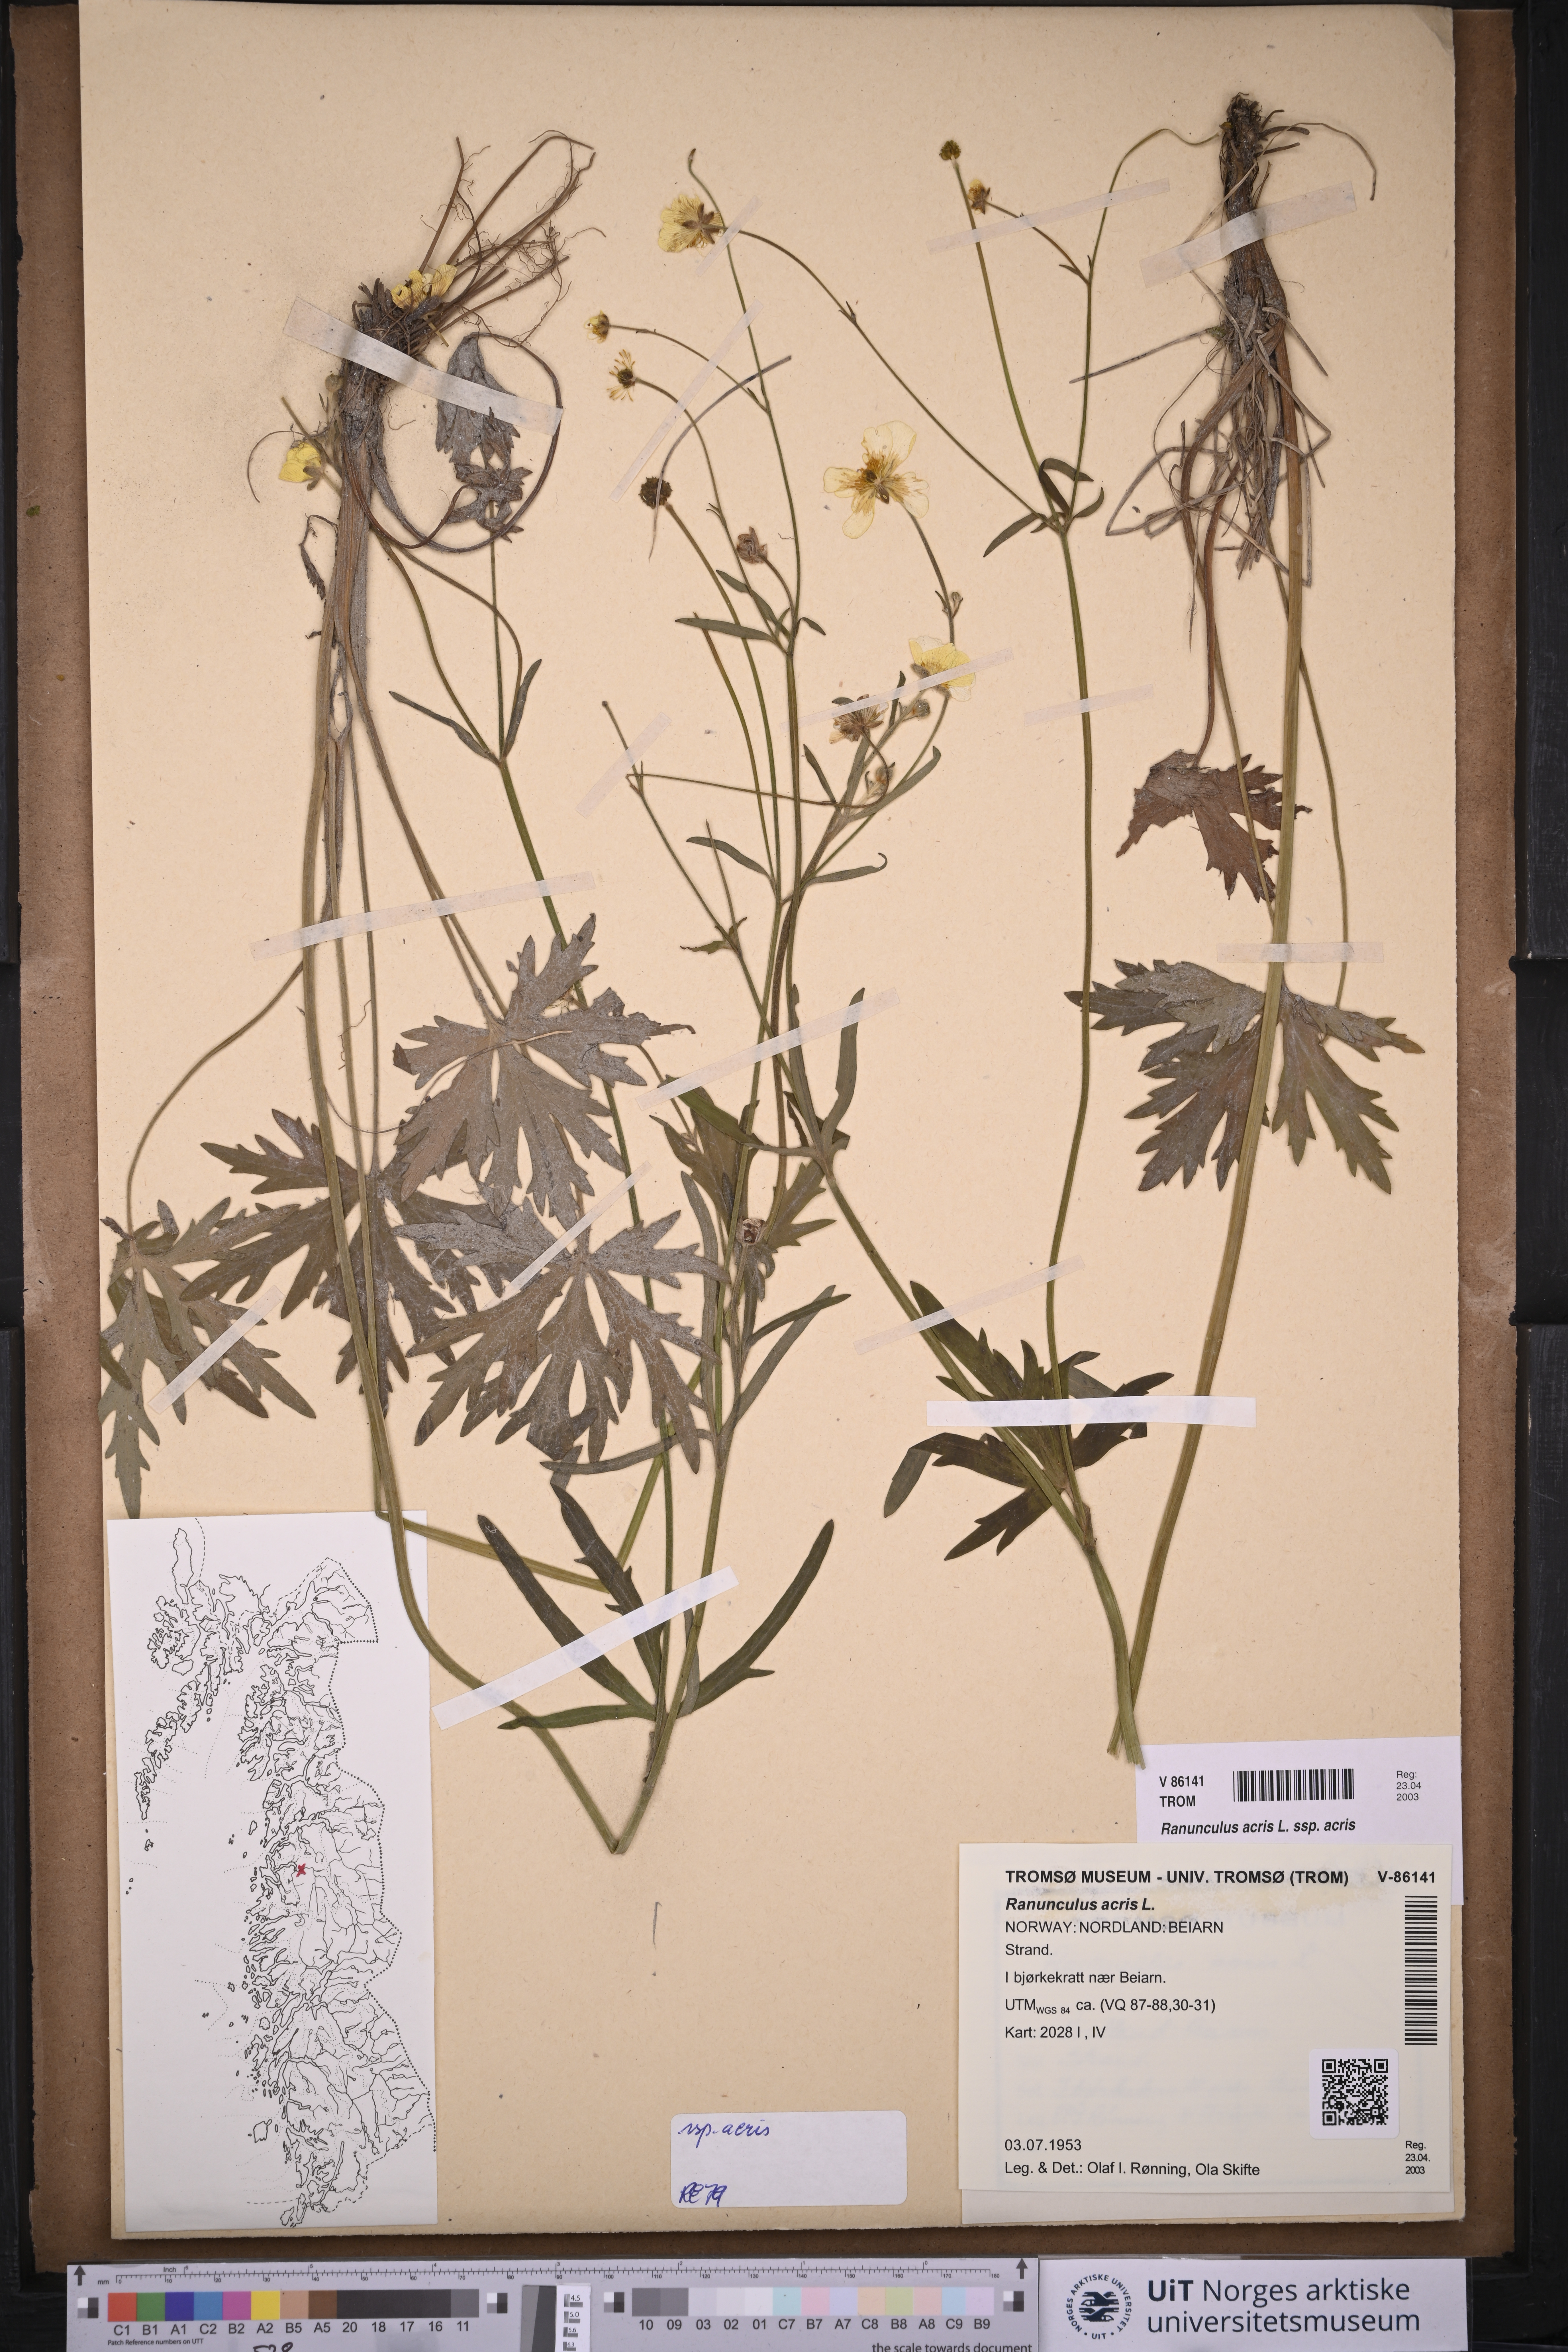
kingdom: Plantae
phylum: Tracheophyta
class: Magnoliopsida
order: Ranunculales
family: Ranunculaceae
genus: Ranunculus
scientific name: Ranunculus acris
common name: Meadow buttercup
